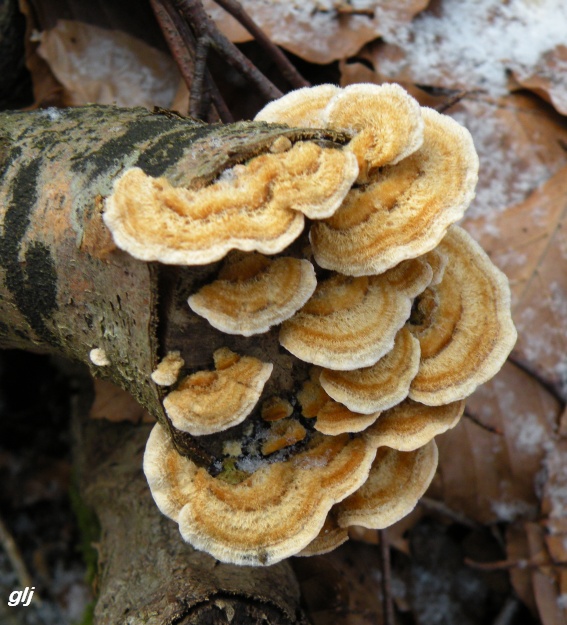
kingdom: Fungi
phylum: Basidiomycota
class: Agaricomycetes
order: Russulales
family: Stereaceae
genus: Stereum
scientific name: Stereum hirsutum
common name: håret lædersvamp
